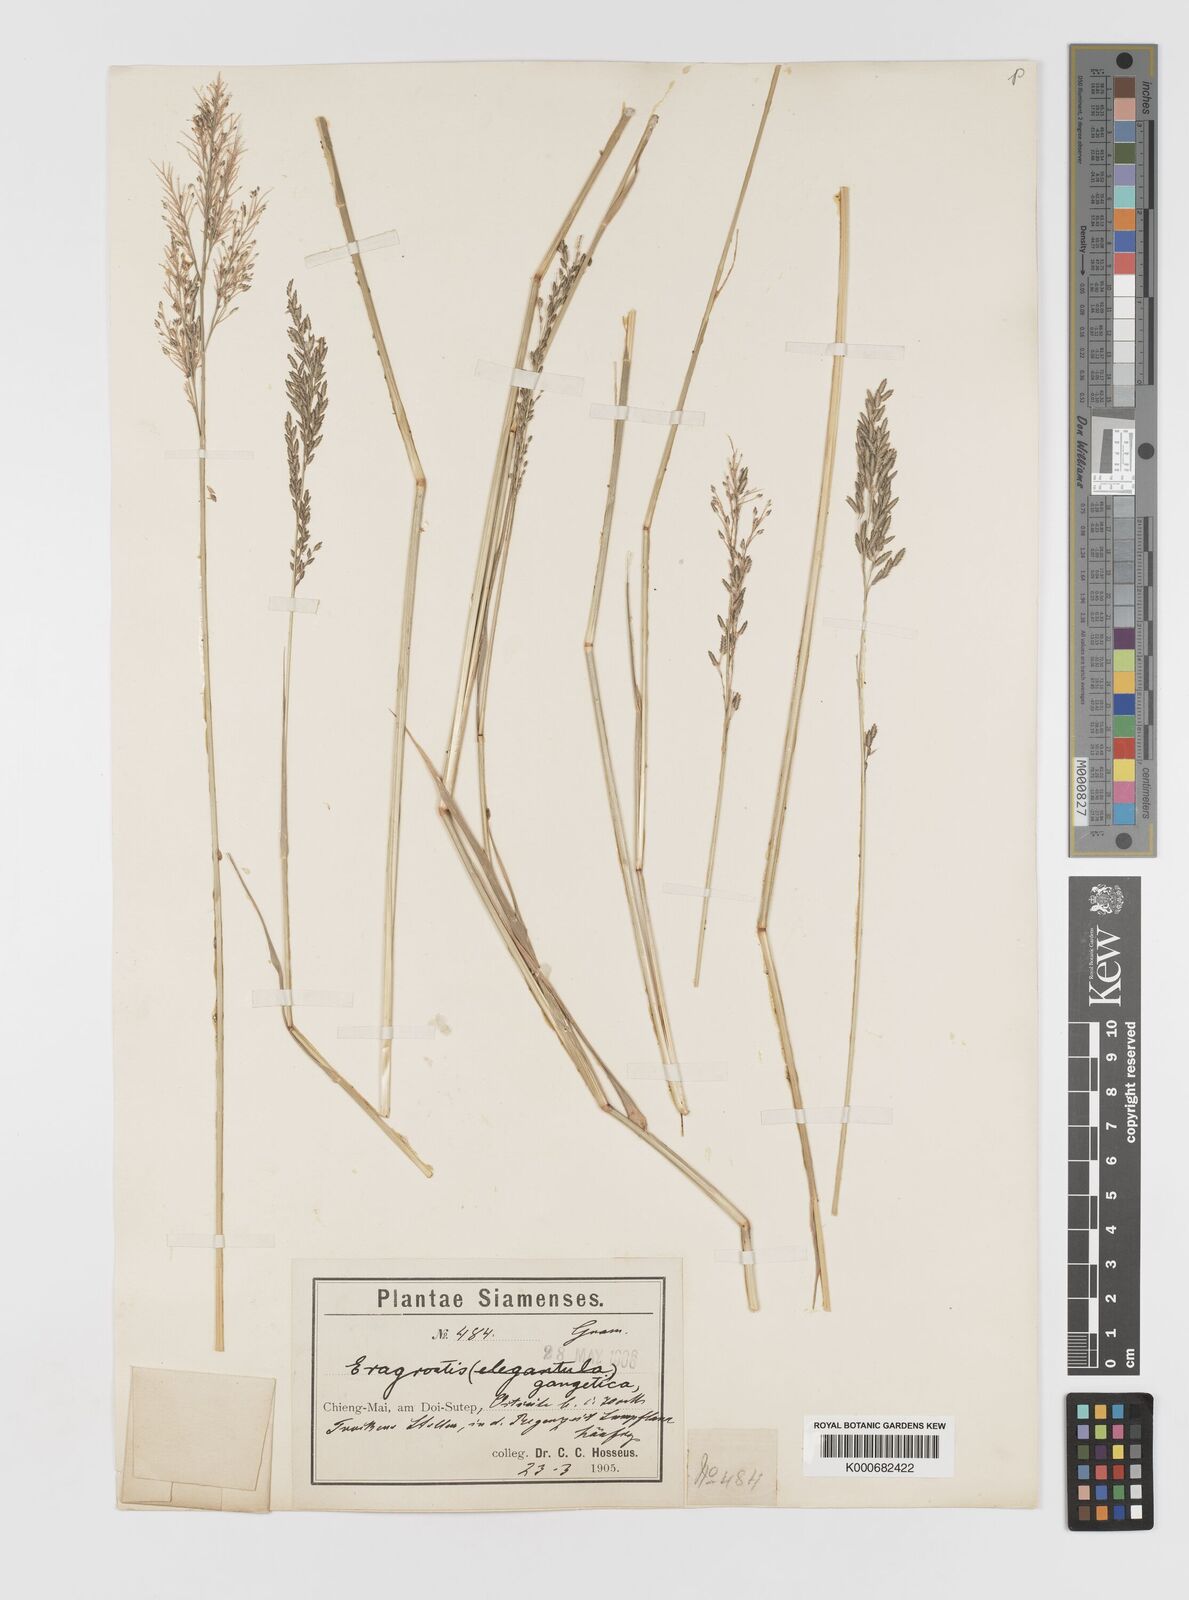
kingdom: Plantae
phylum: Tracheophyta
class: Liliopsida
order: Poales
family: Poaceae
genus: Eragrostis
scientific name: Eragrostis
